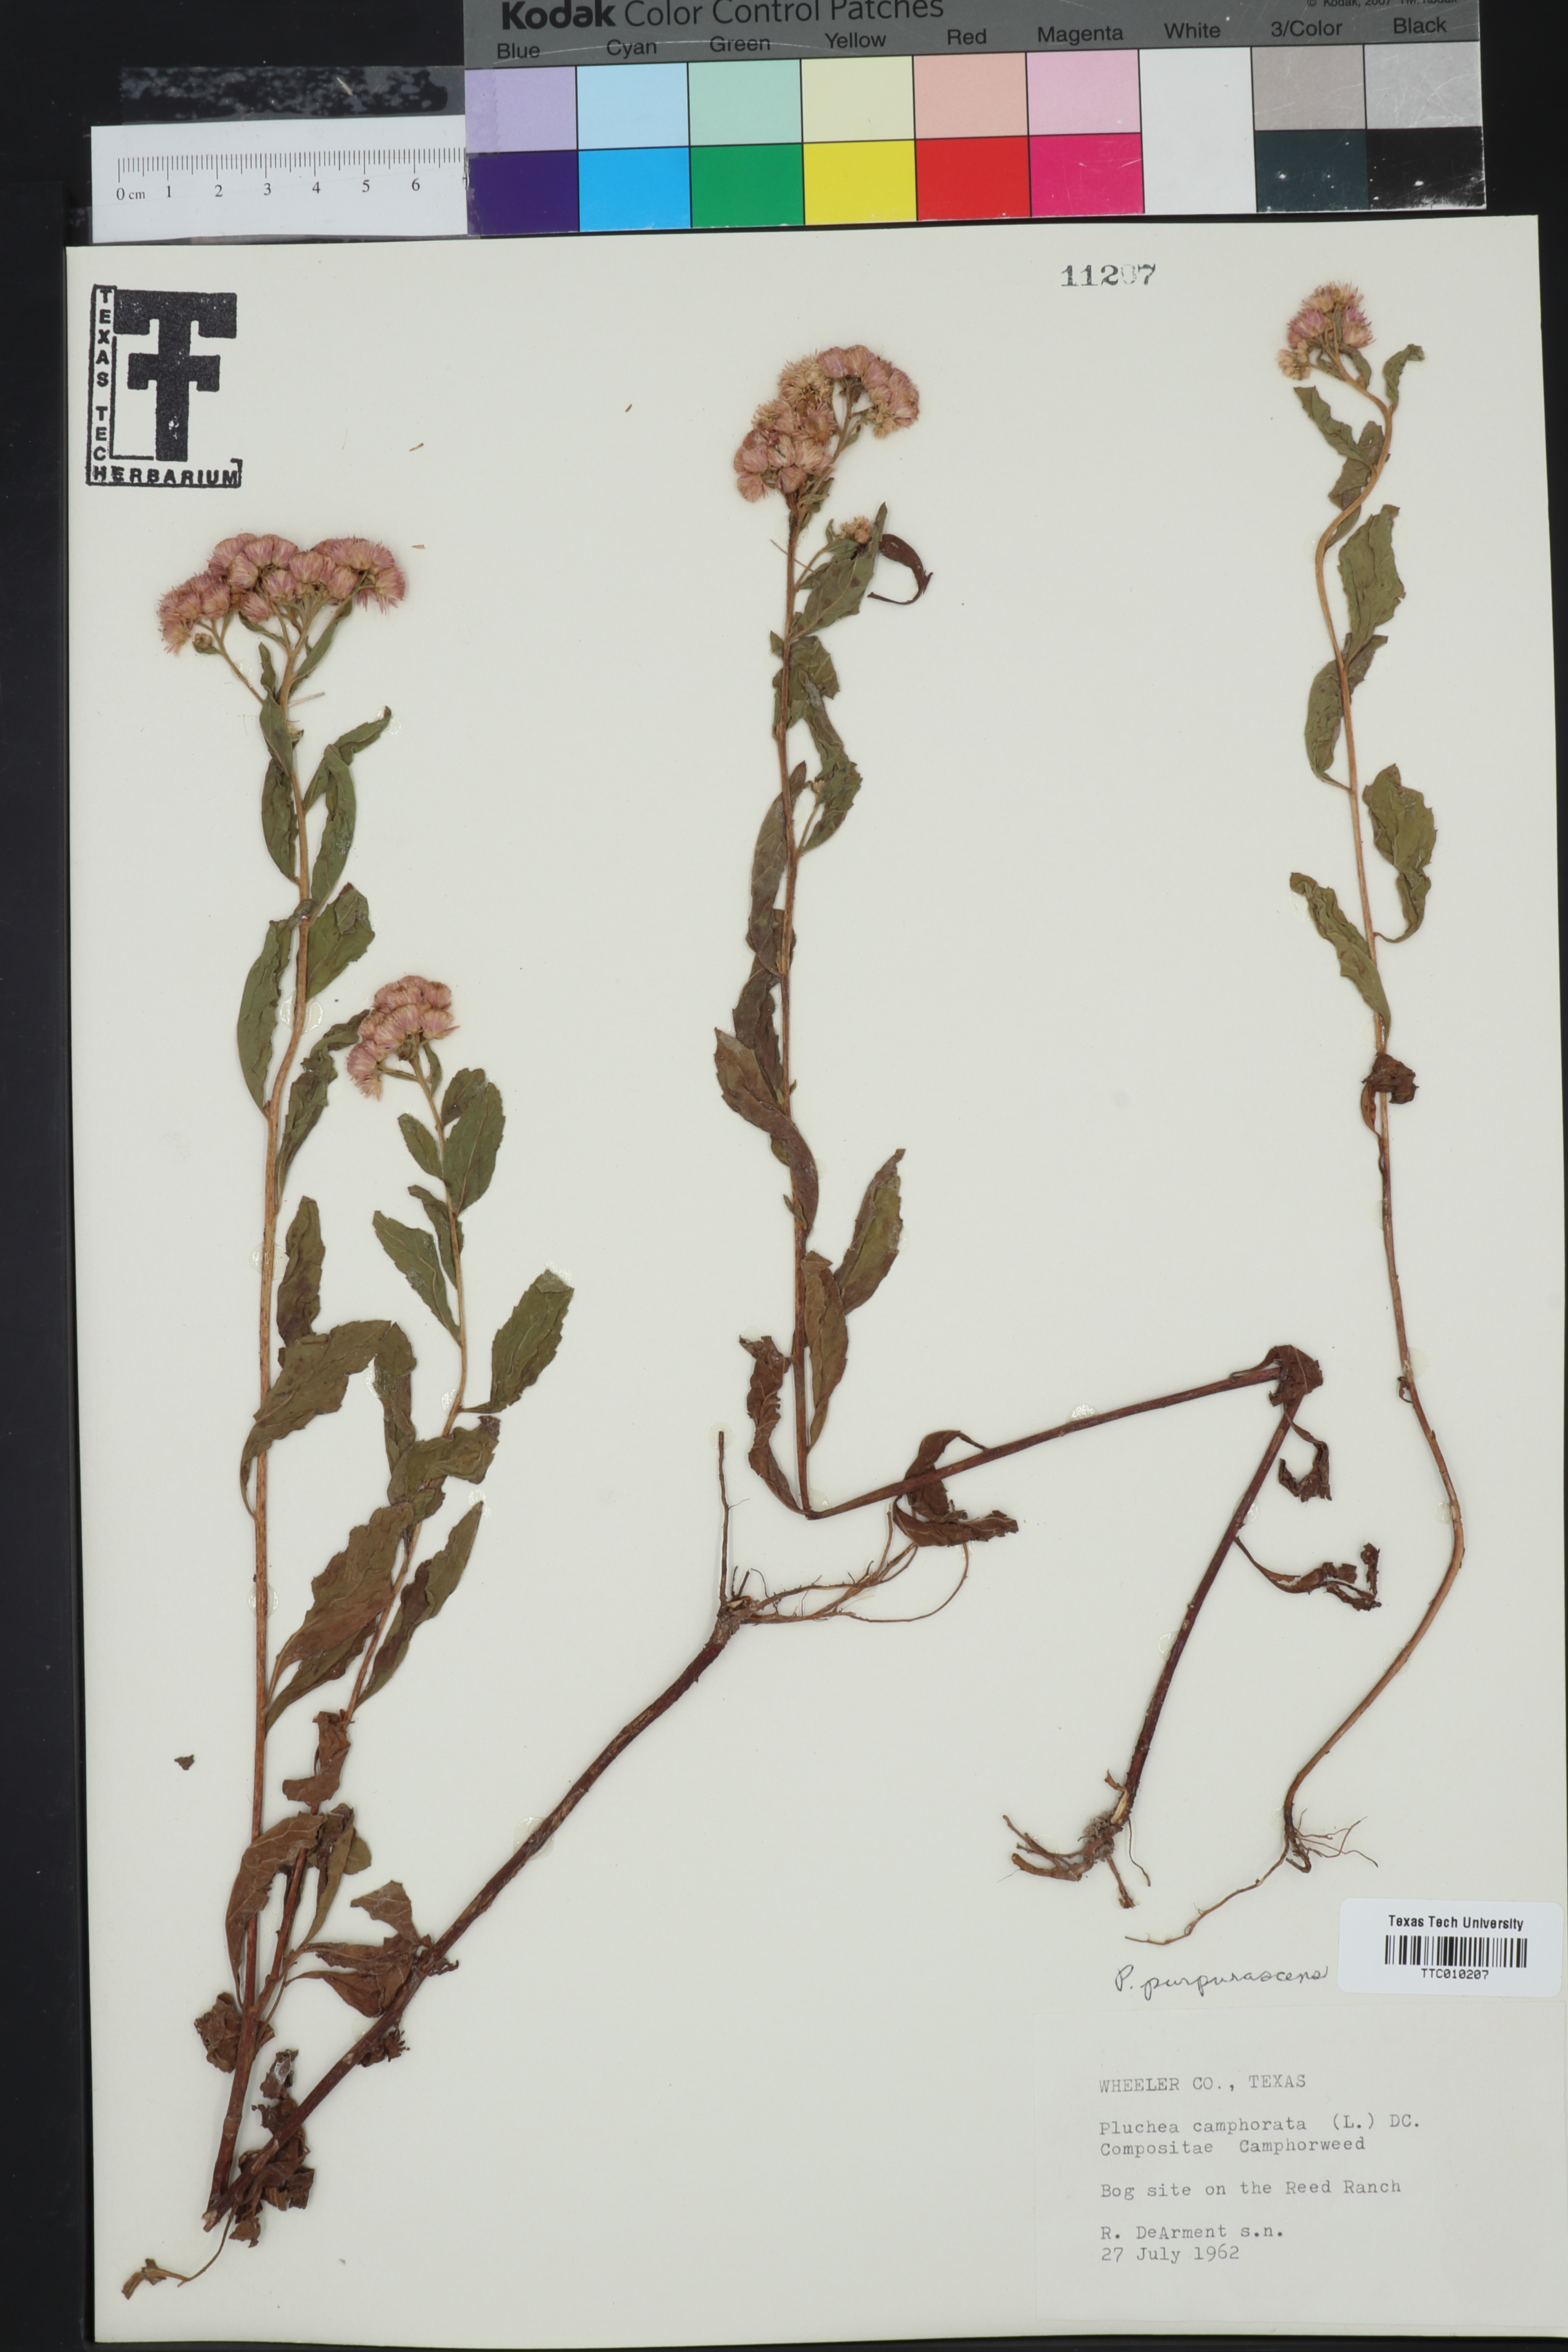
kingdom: Plantae
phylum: Tracheophyta
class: Magnoliopsida
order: Asterales
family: Asteraceae
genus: Pluchea
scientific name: Pluchea odorata
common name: Saltmarsh fleabane
